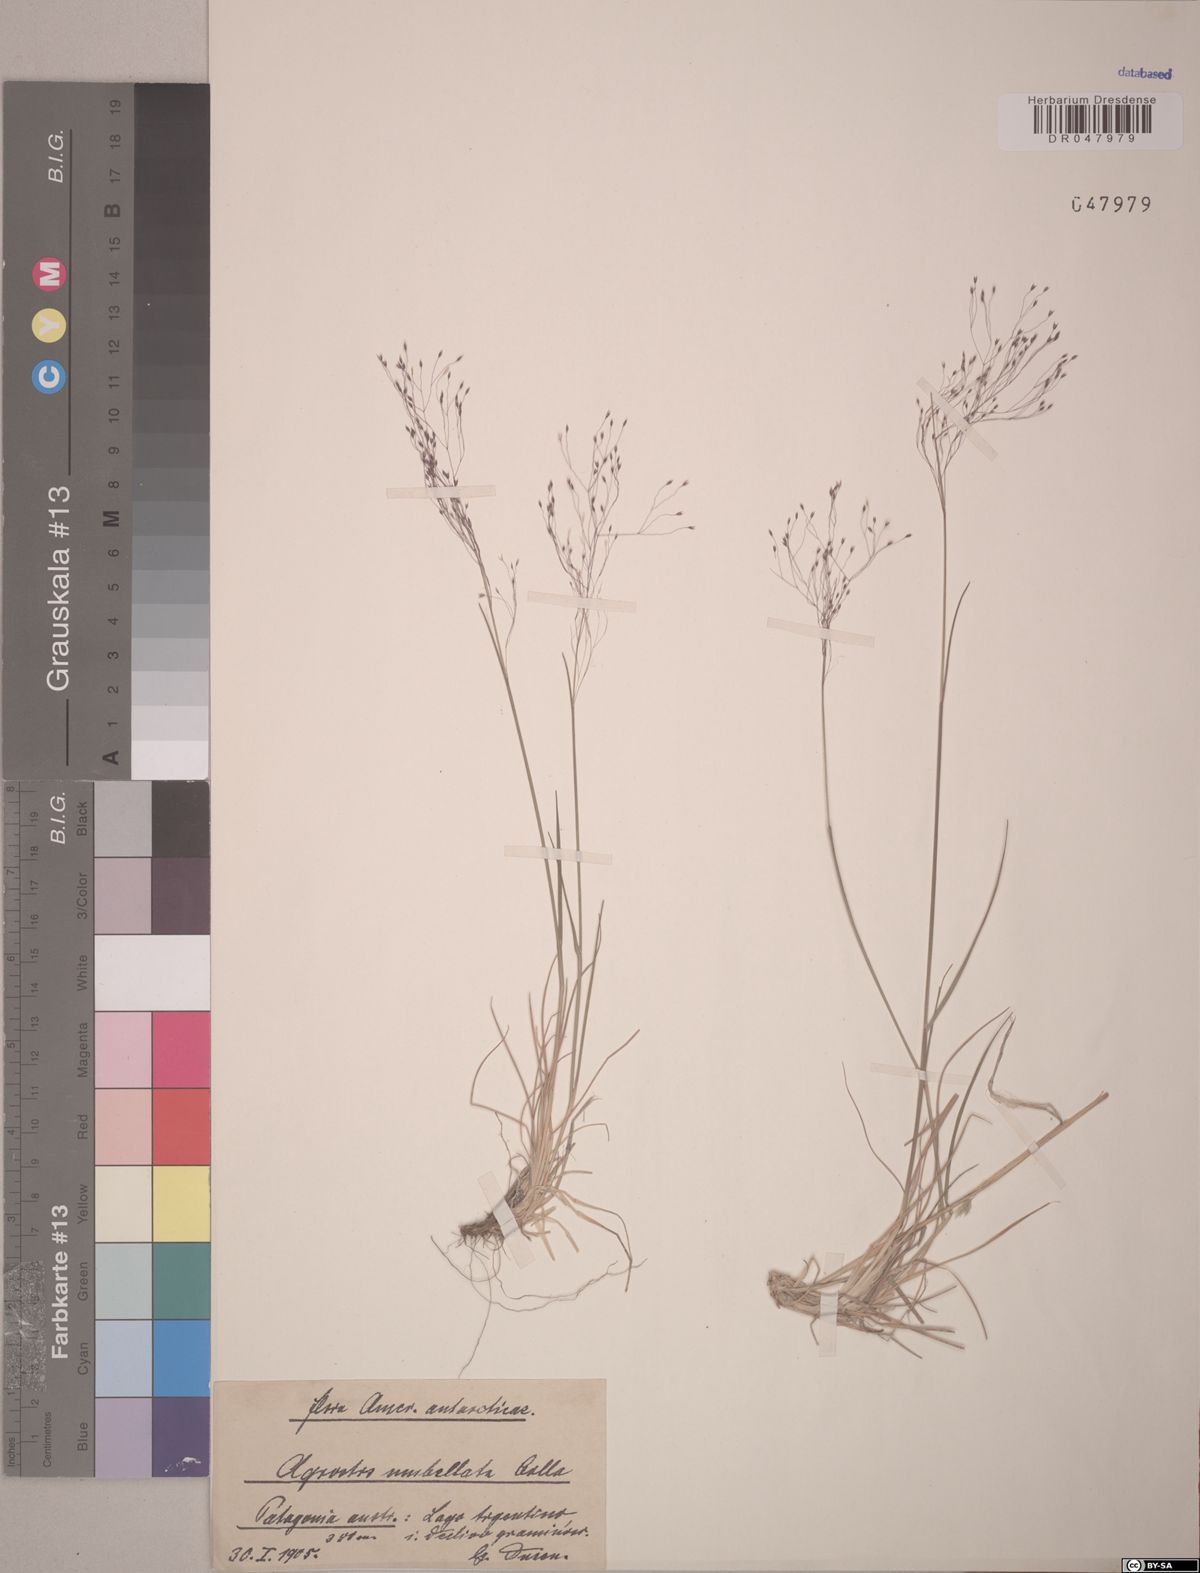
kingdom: Plantae
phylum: Tracheophyta
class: Liliopsida
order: Poales
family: Poaceae
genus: Agrostis
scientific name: Agrostis umbellata
